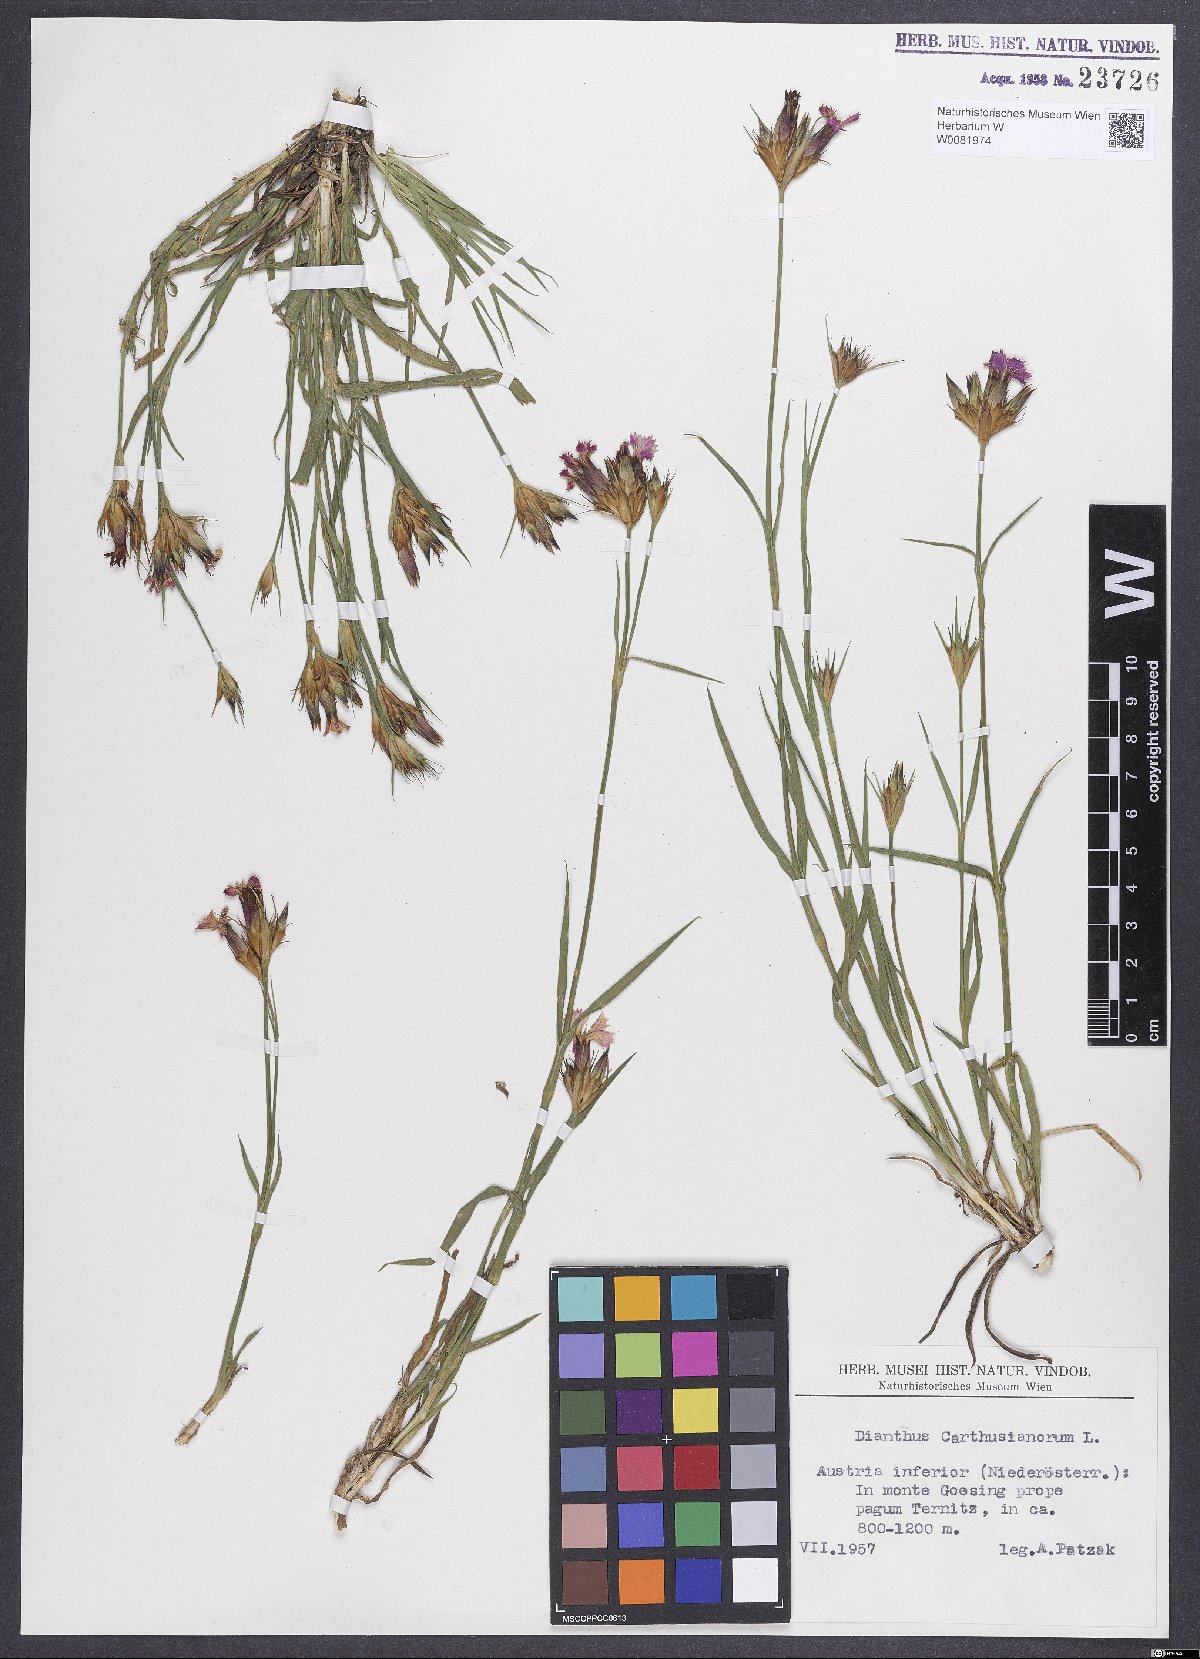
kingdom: Plantae
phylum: Tracheophyta
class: Magnoliopsida
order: Caryophyllales
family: Caryophyllaceae
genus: Dianthus
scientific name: Dianthus carthusianorum
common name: Carthusian pink
